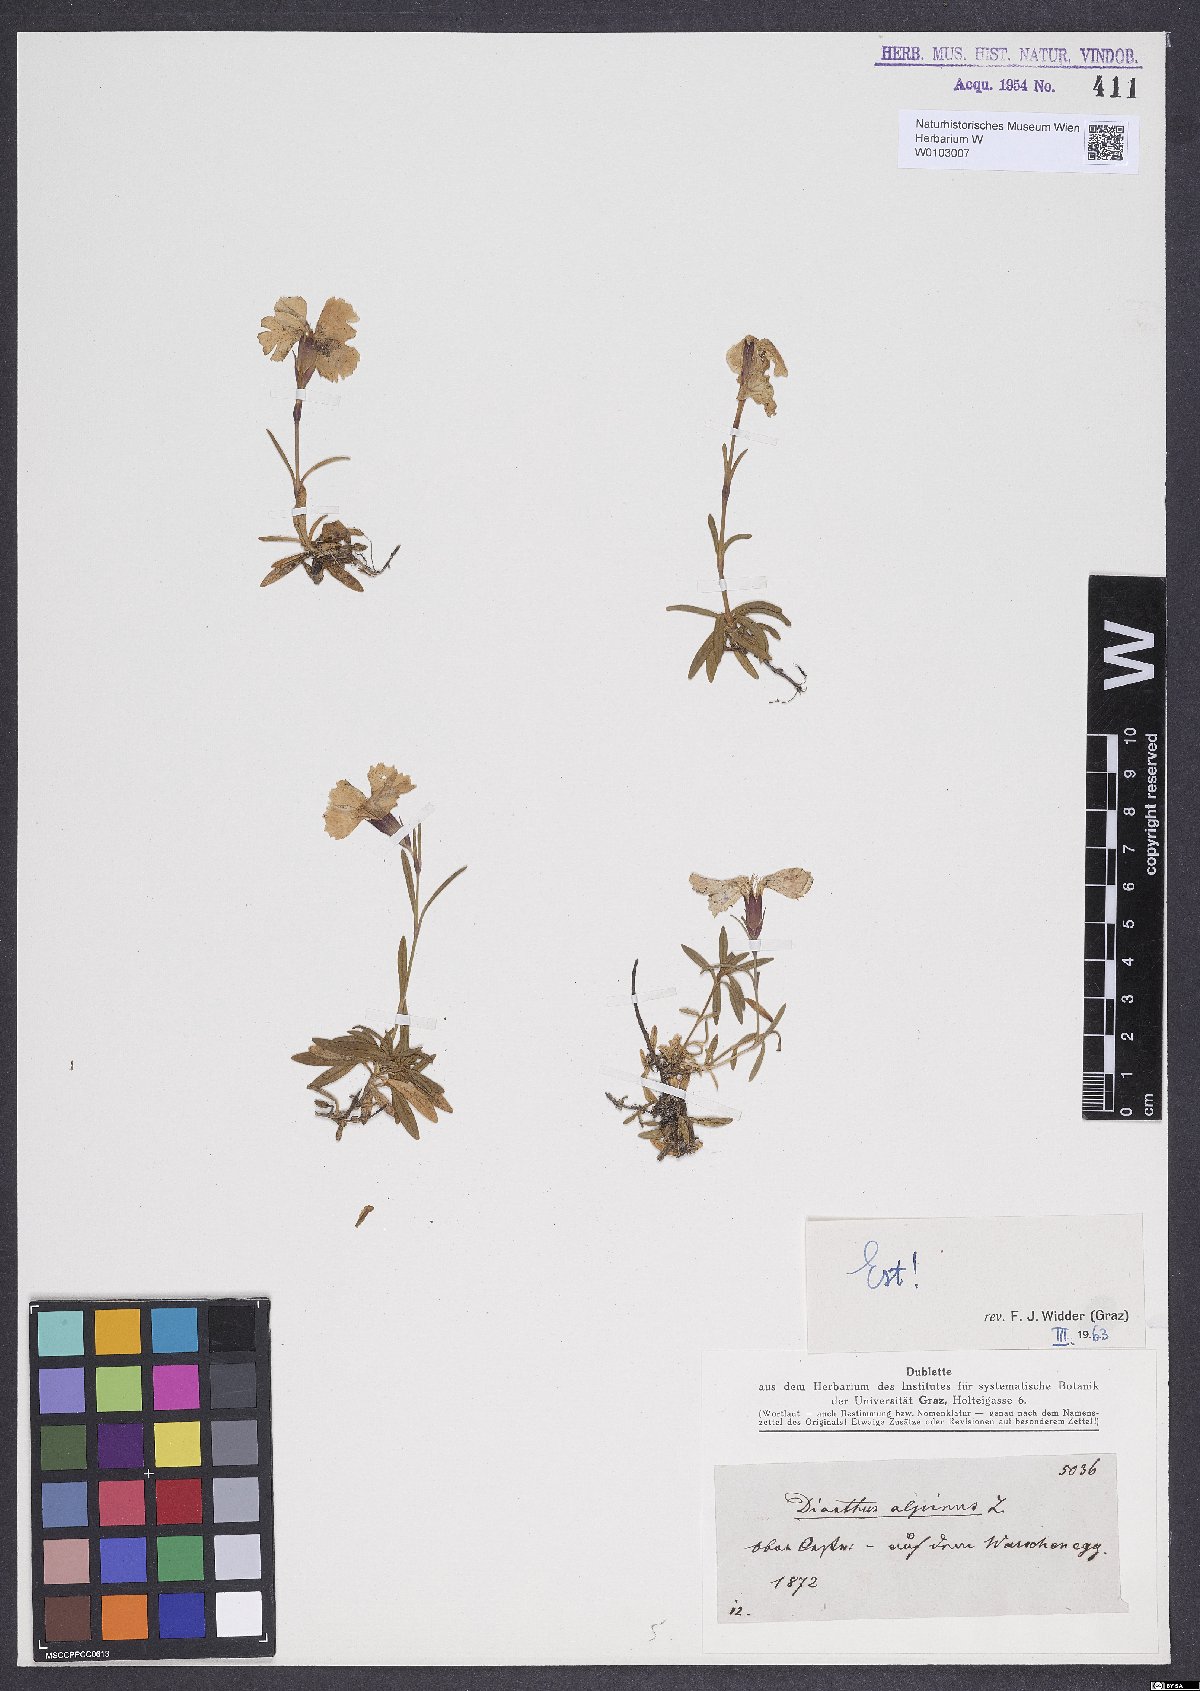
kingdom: Plantae
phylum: Tracheophyta
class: Magnoliopsida
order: Caryophyllales
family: Caryophyllaceae
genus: Dianthus
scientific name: Dianthus alpinus
